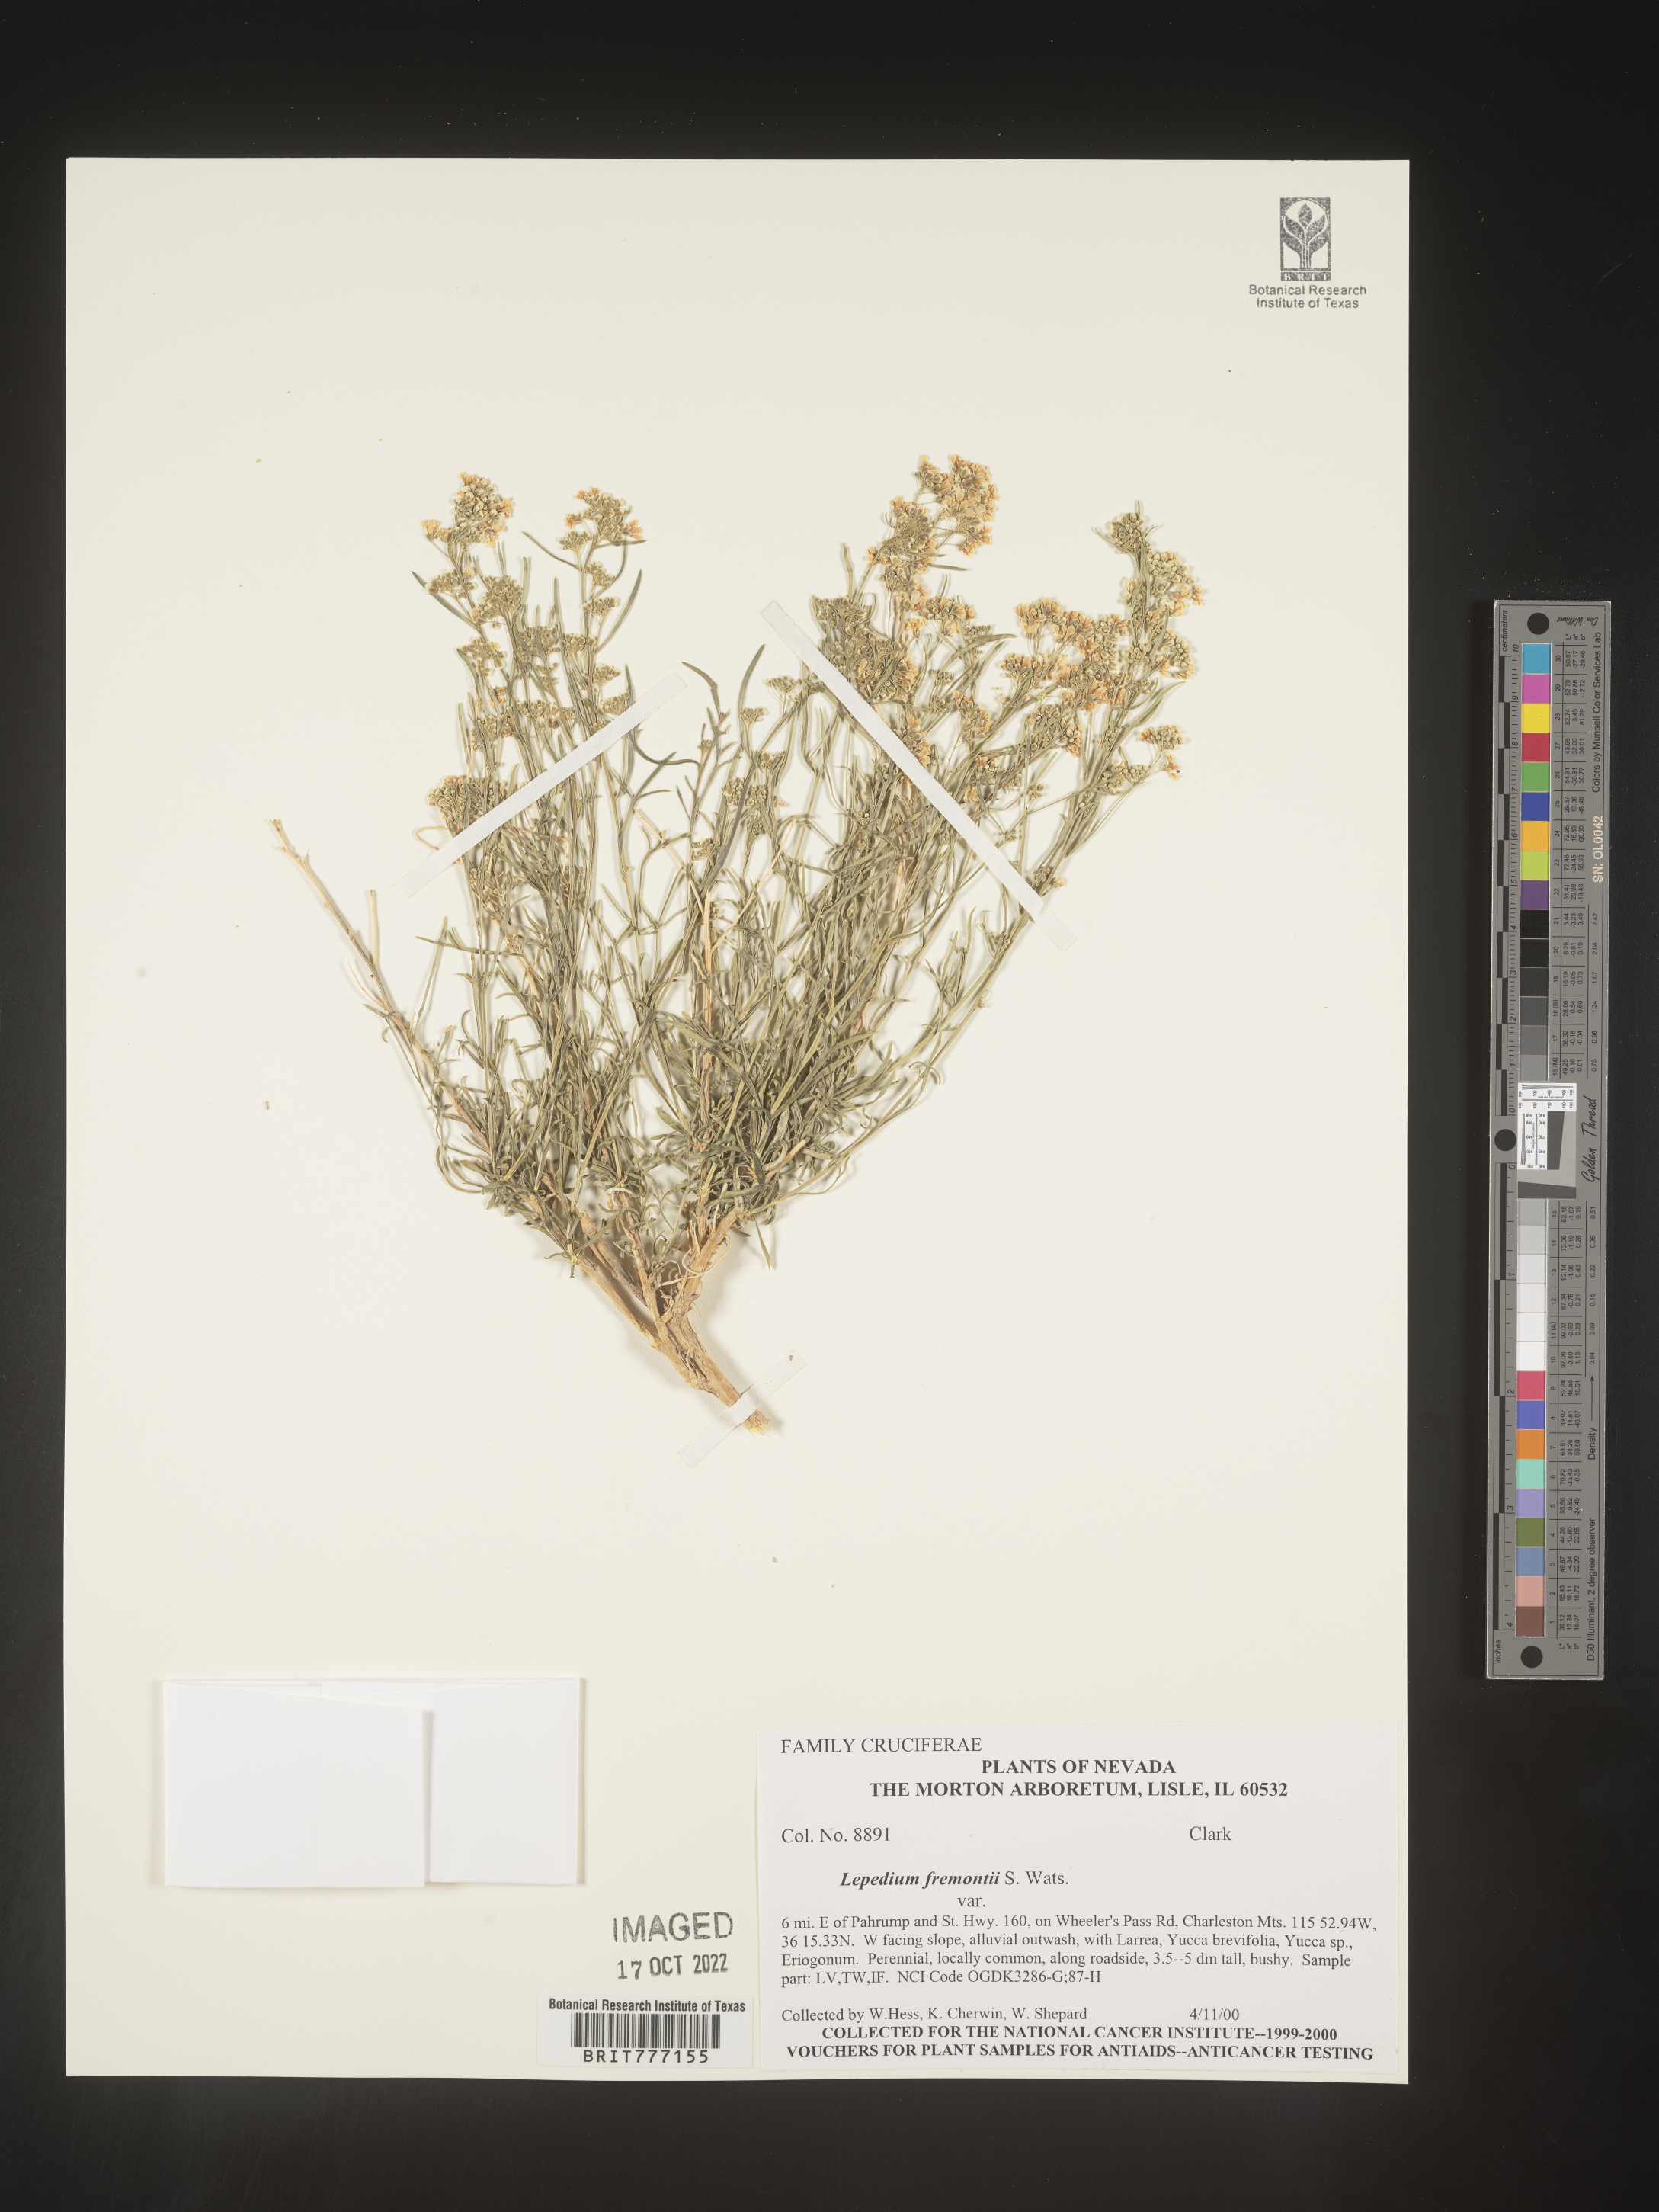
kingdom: Plantae
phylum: Tracheophyta
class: Magnoliopsida
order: Brassicales
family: Brassicaceae
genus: Lepidium
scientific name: Lepidium fremontii
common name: Fremont's pepperwort
